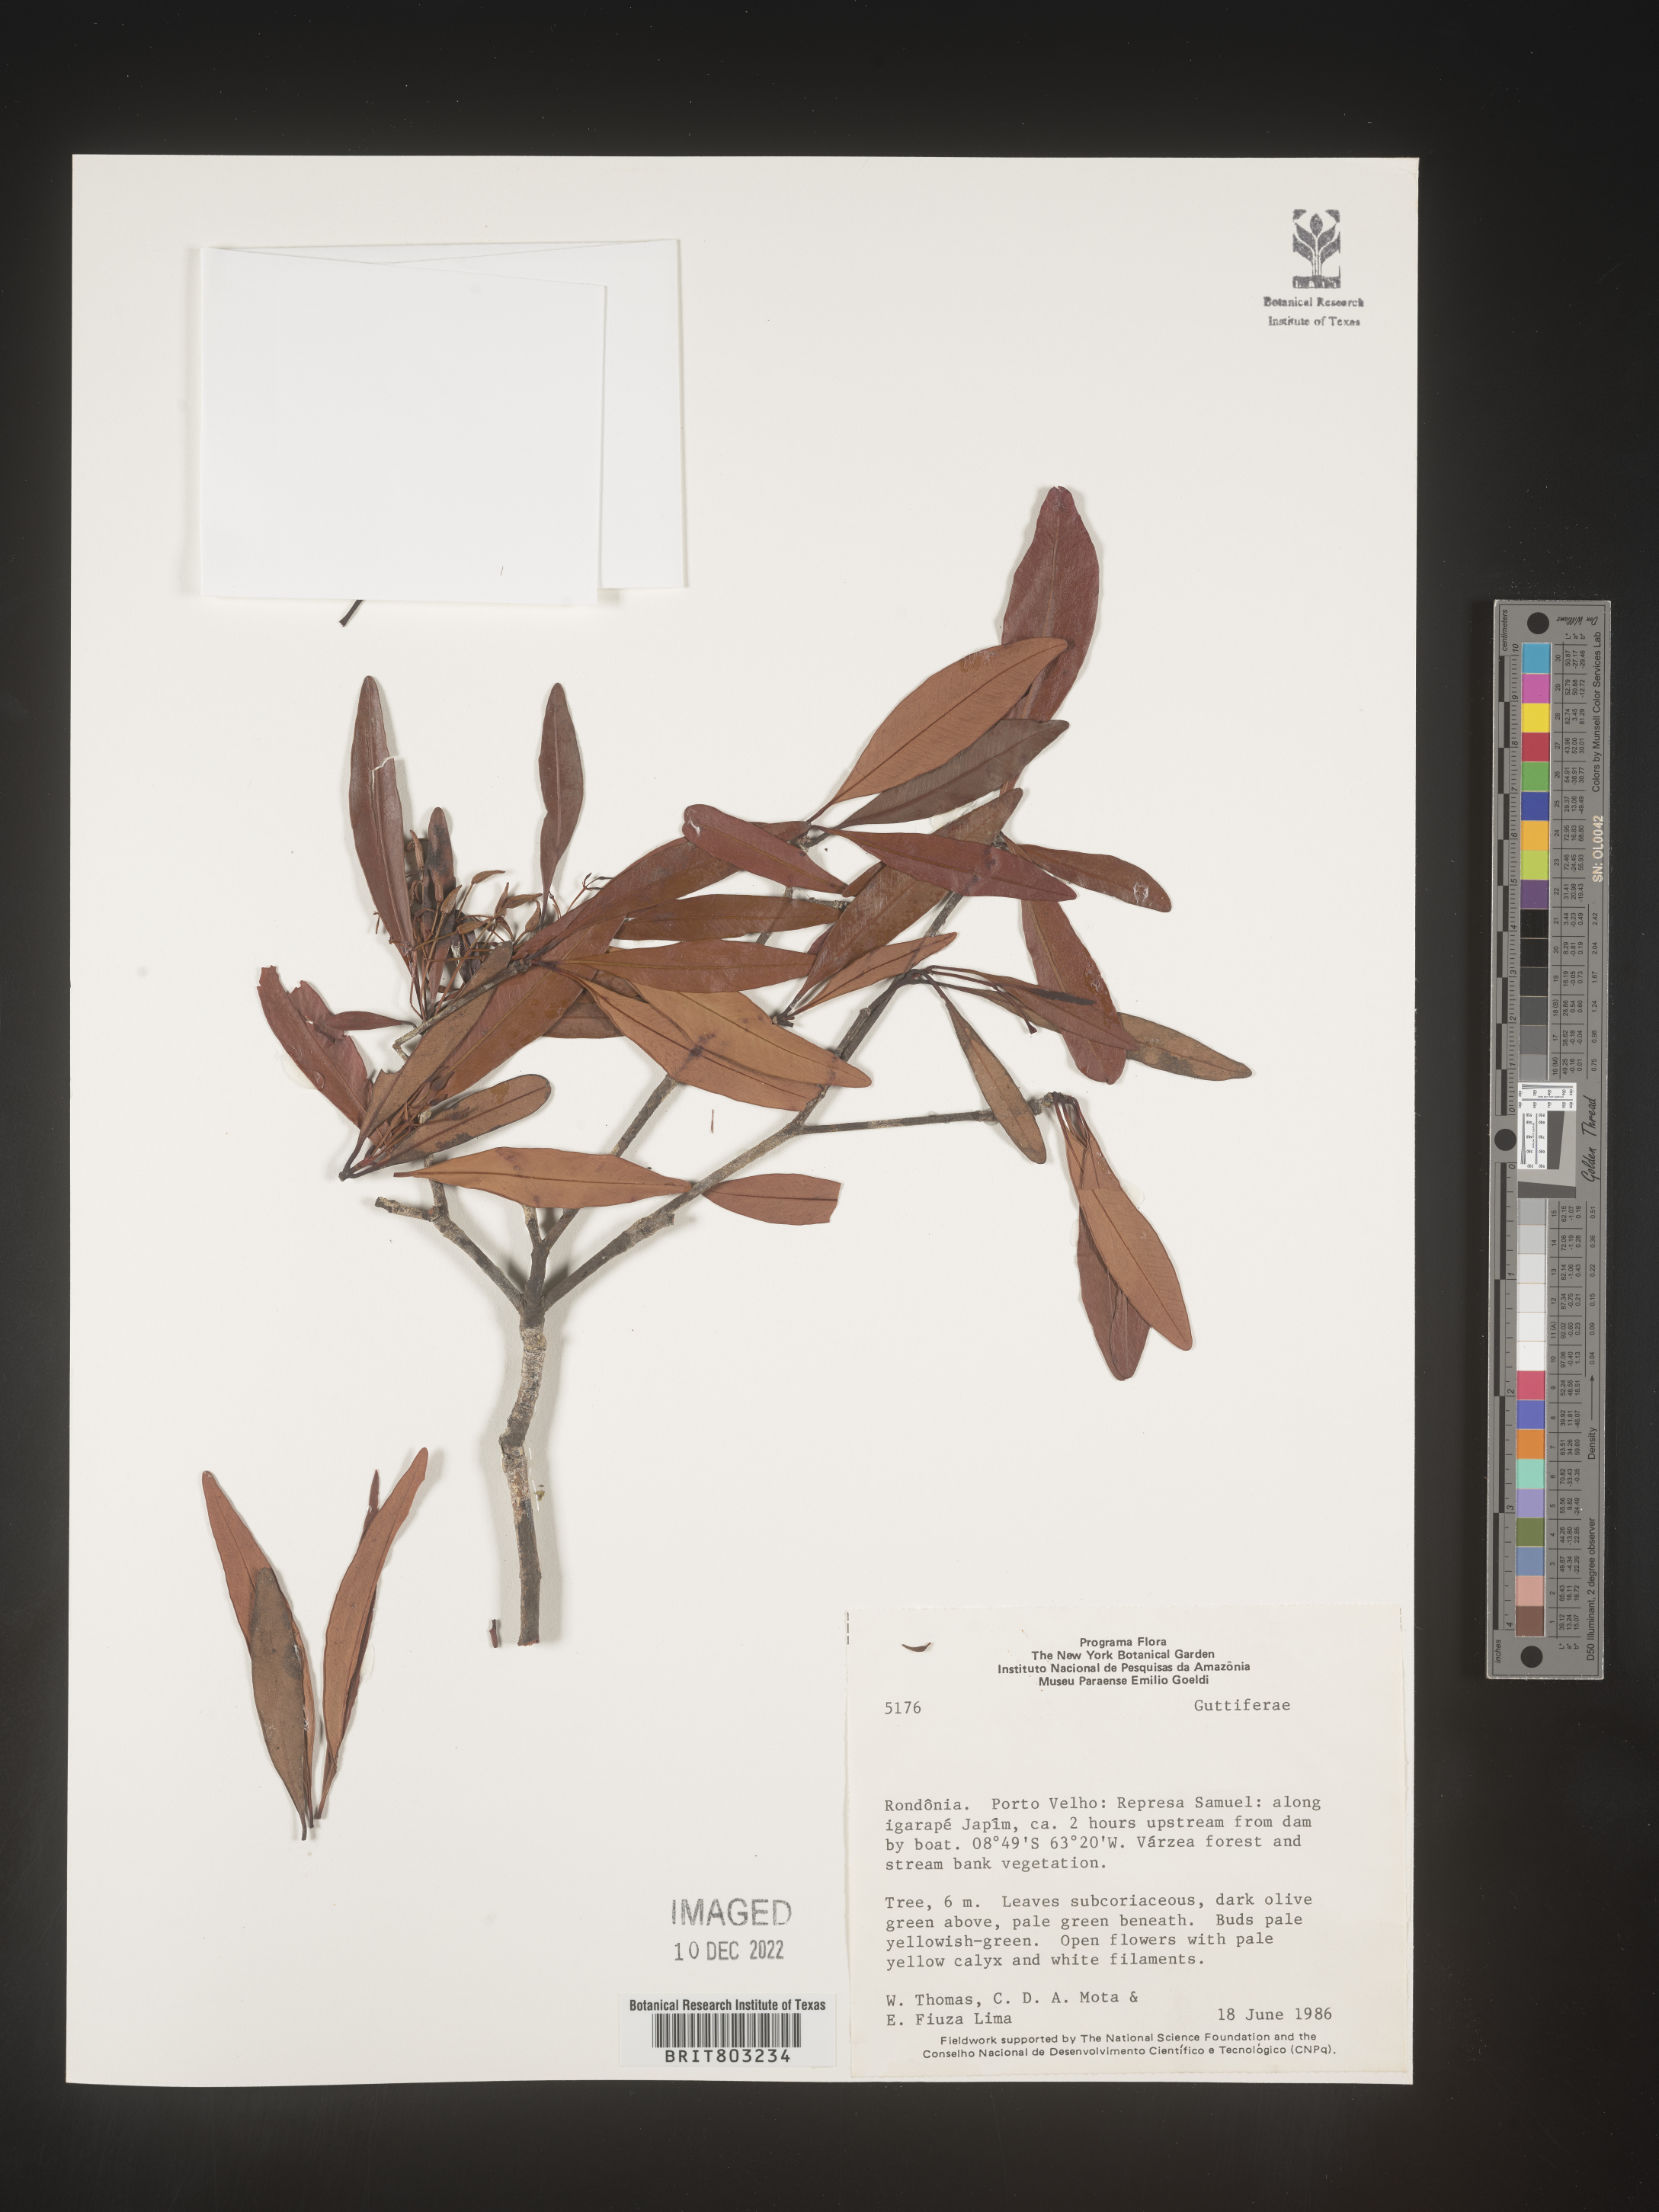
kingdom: Plantae
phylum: Tracheophyta
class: Magnoliopsida
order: Malpighiales
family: Clusiaceae
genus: Tovomita
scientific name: Tovomita
